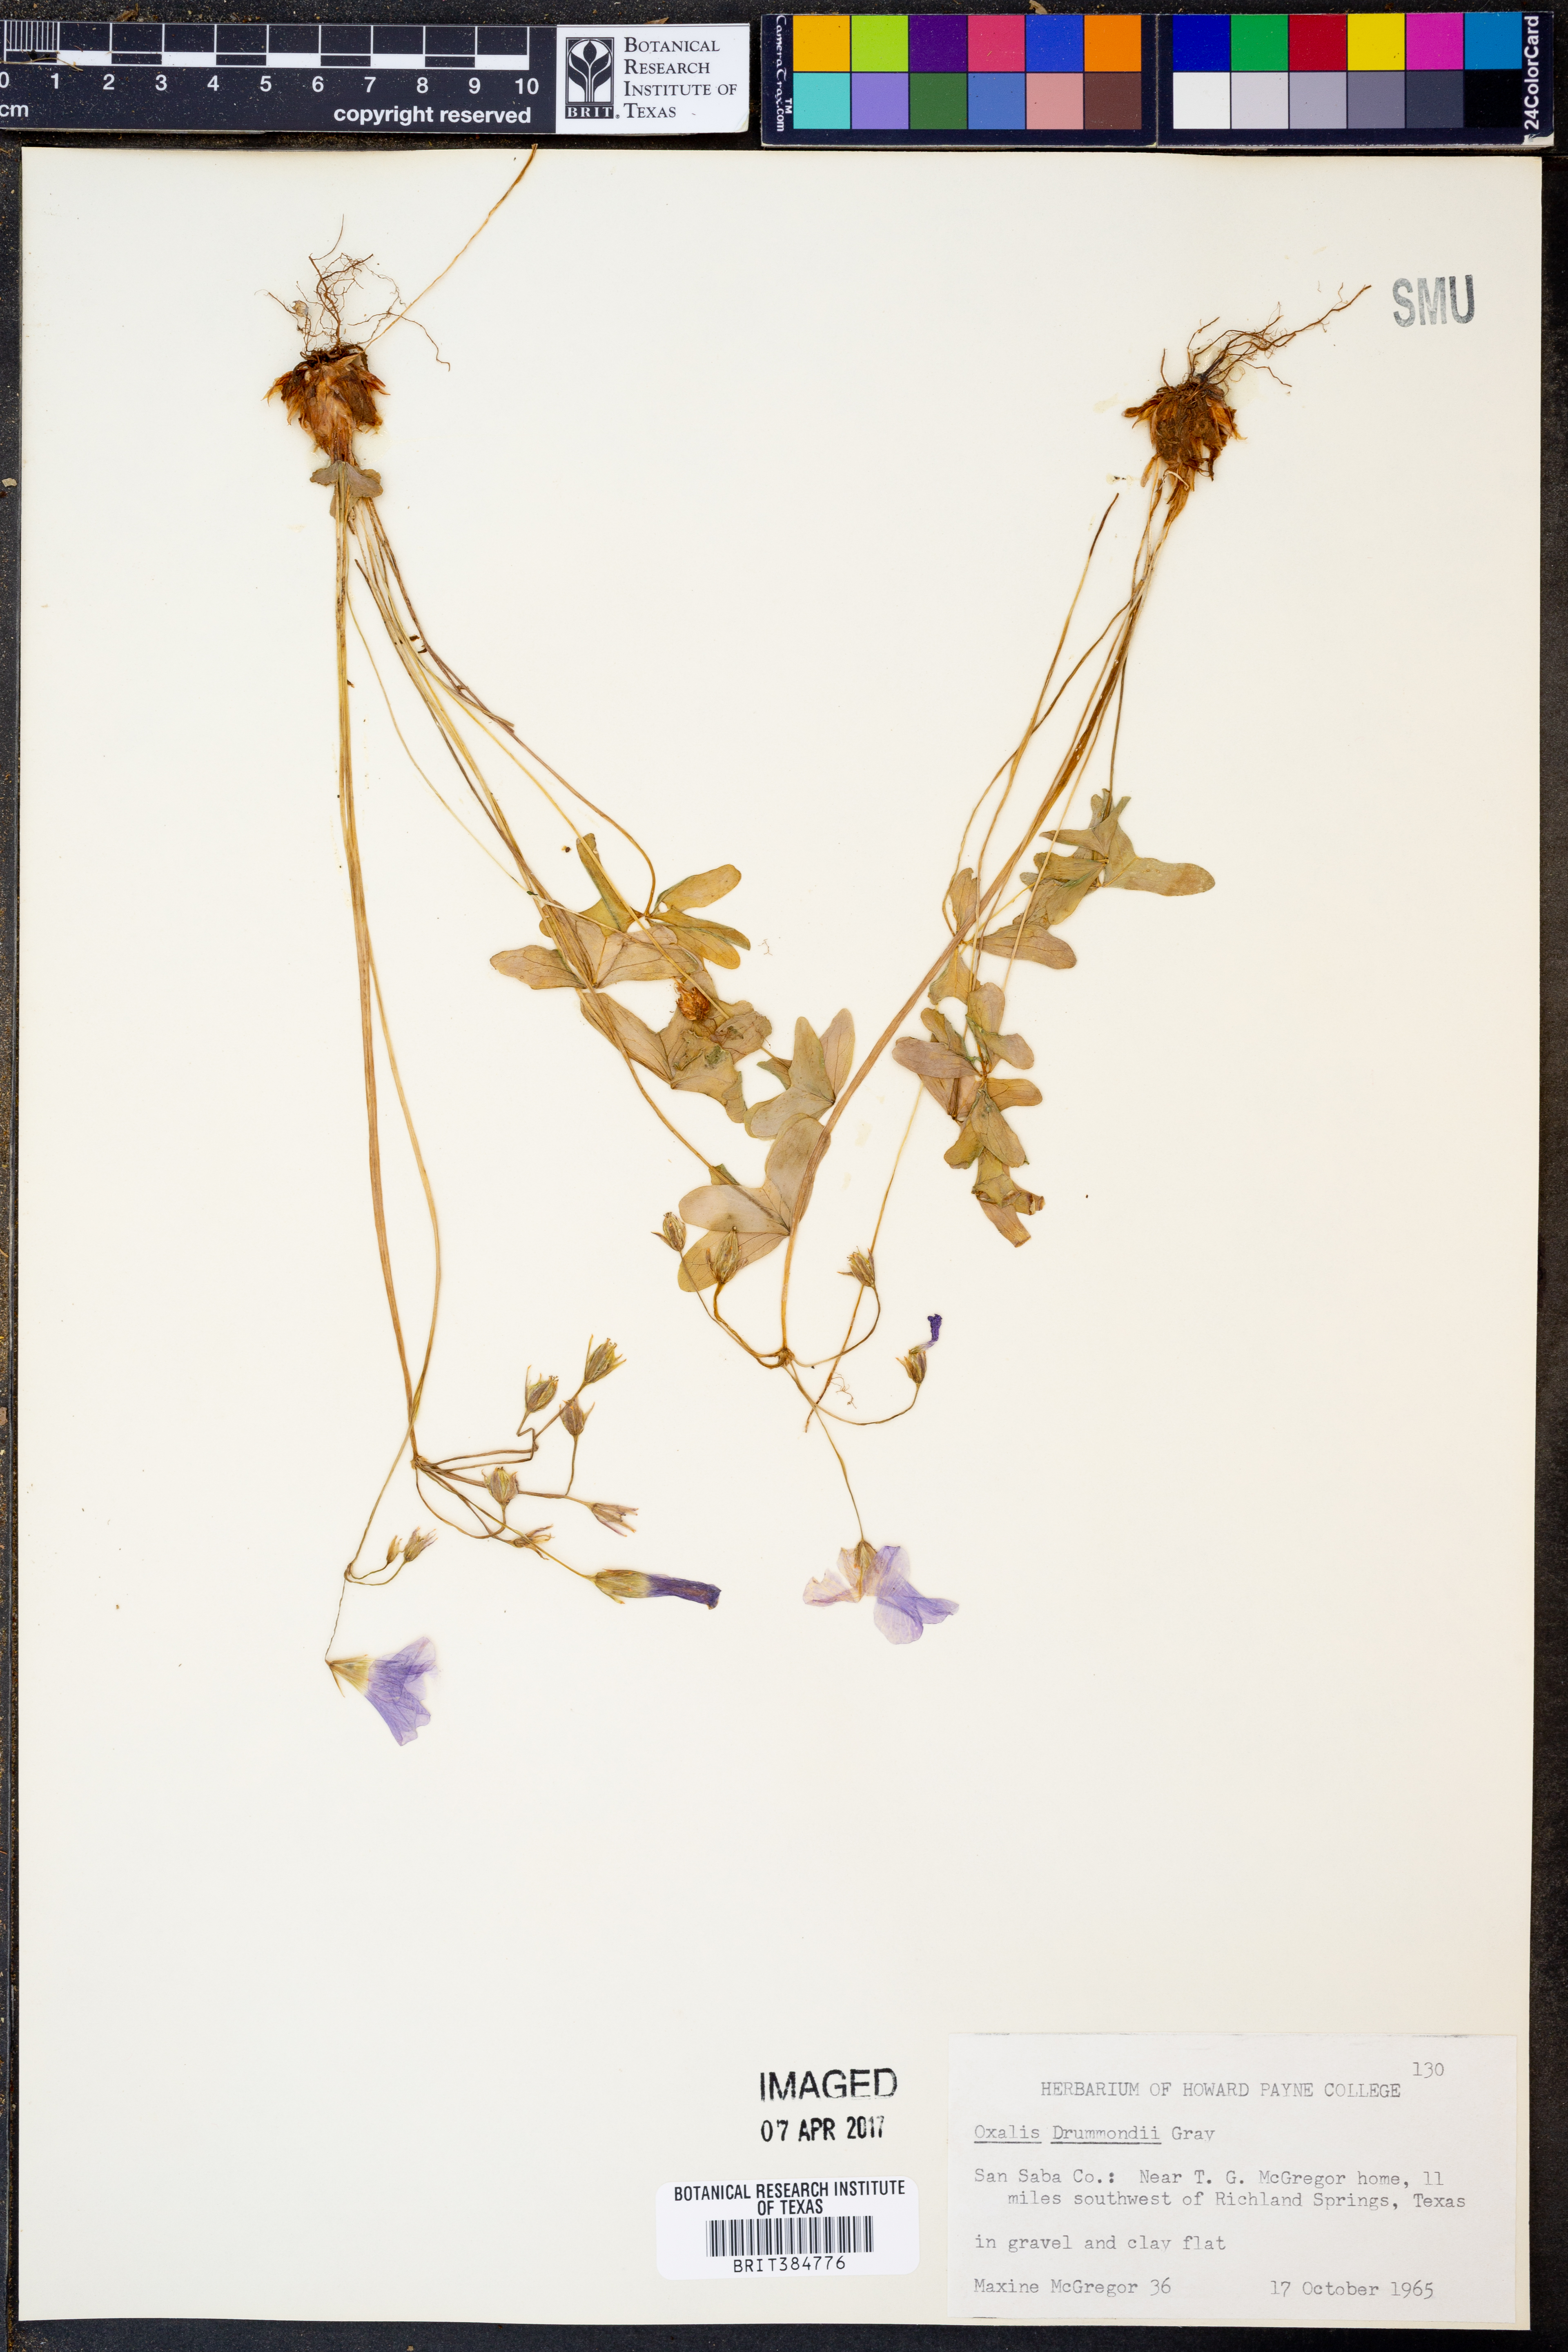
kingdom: Plantae
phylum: Tracheophyta
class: Magnoliopsida
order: Oxalidales
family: Oxalidaceae
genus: Oxalis
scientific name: Oxalis drummondii
